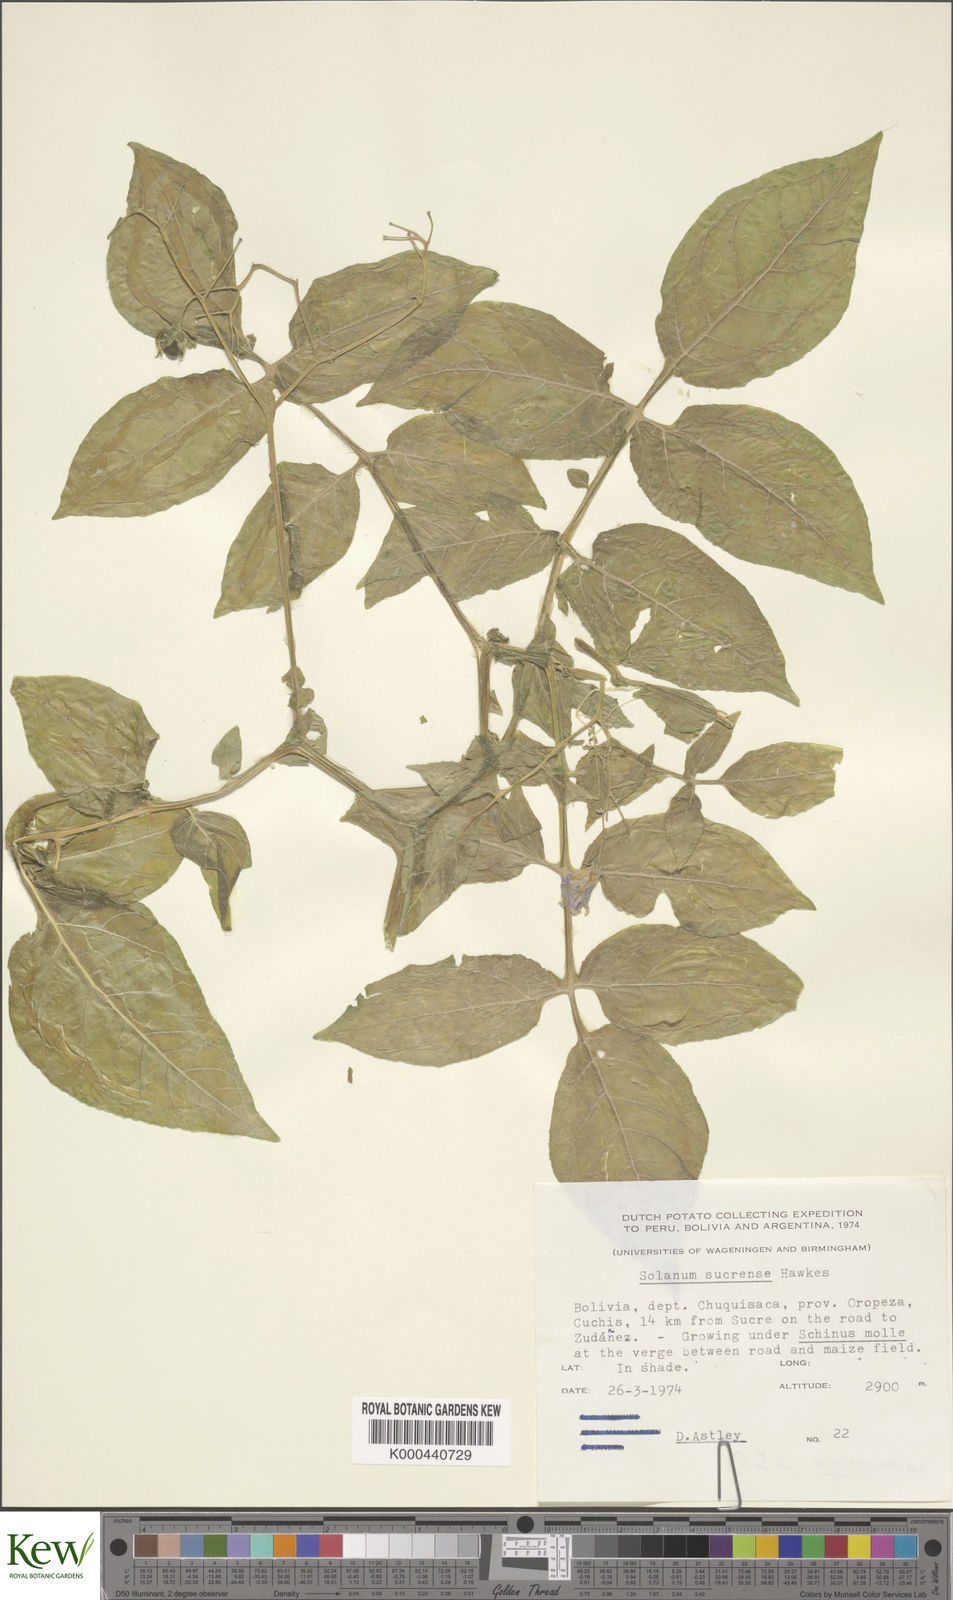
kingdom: Plantae
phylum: Tracheophyta
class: Magnoliopsida
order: Solanales
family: Solanaceae
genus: Solanum
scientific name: Solanum brevicaule
